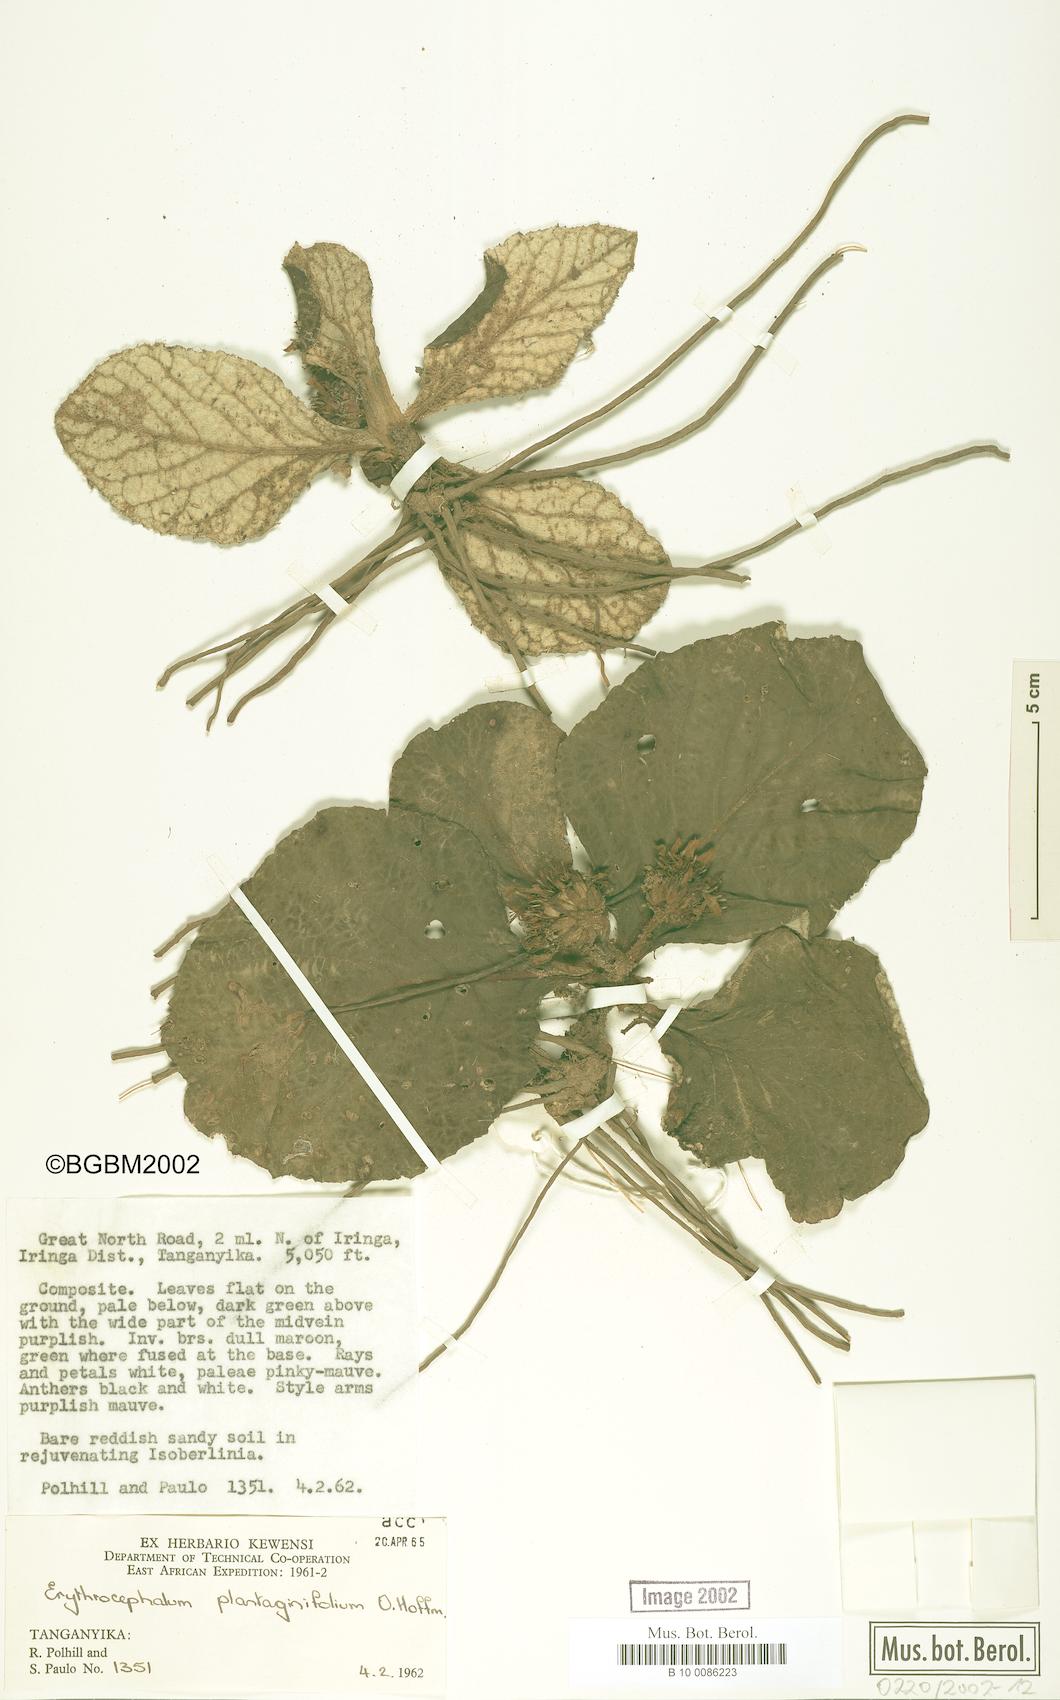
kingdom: Plantae
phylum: Tracheophyta
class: Magnoliopsida
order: Asterales
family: Asteraceae
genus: Erythrocephalum
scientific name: Erythrocephalum plantaginifolium
